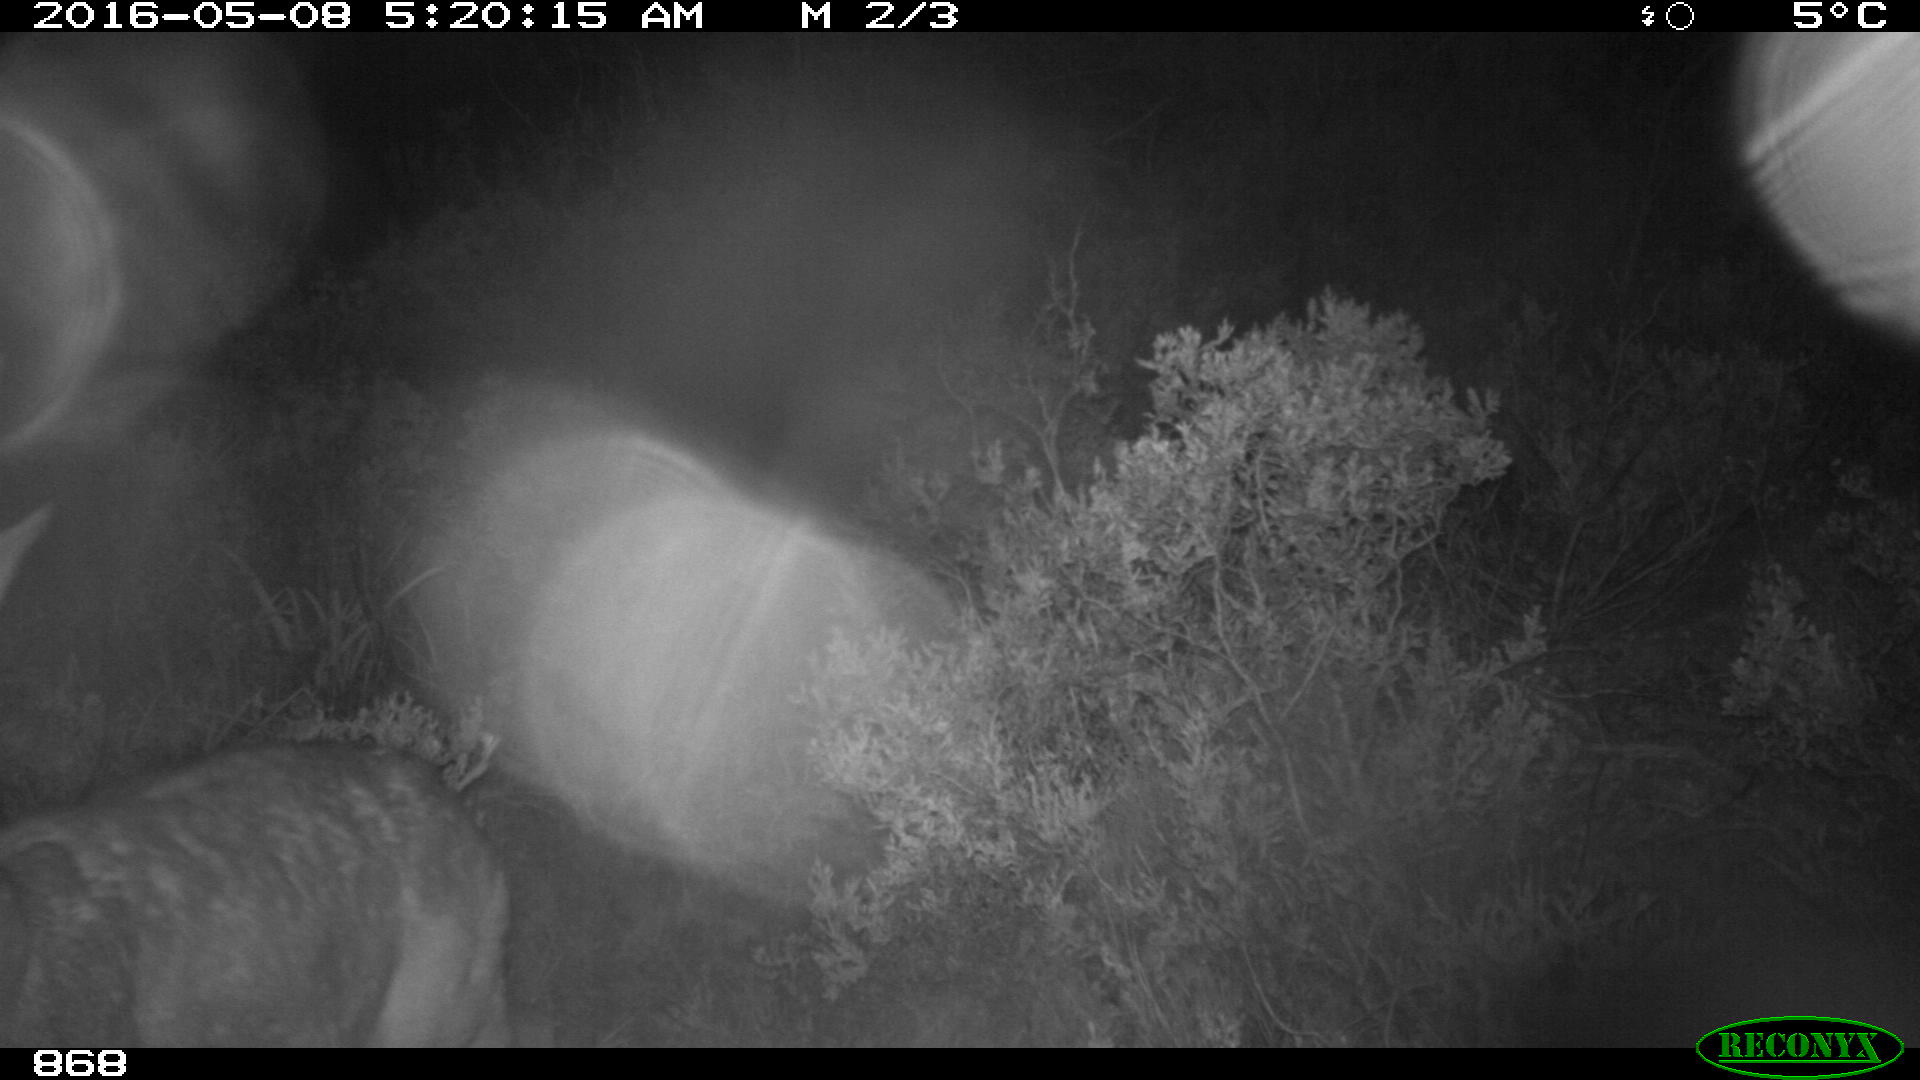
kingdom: Animalia
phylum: Chordata
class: Mammalia
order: Artiodactyla
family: Cervidae
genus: Capreolus
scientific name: Capreolus capreolus
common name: Western roe deer
